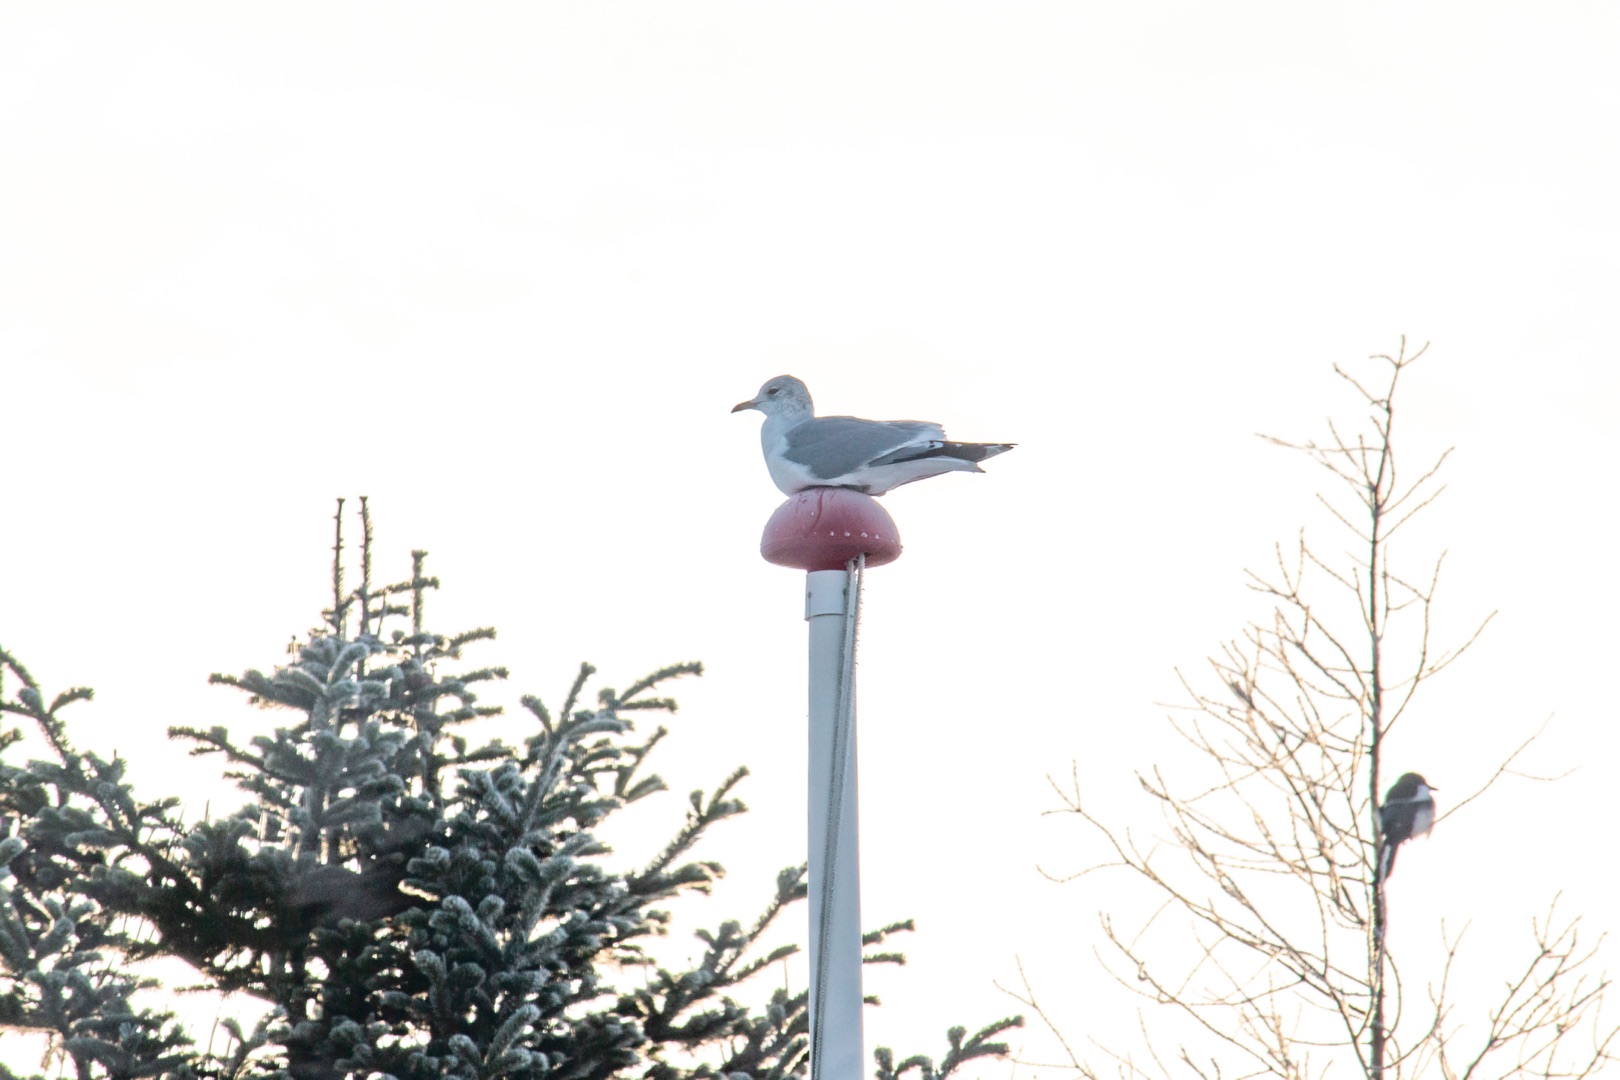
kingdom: Animalia
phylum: Chordata
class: Aves
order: Charadriiformes
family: Laridae
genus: Larus
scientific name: Larus canus
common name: Stormmåge
